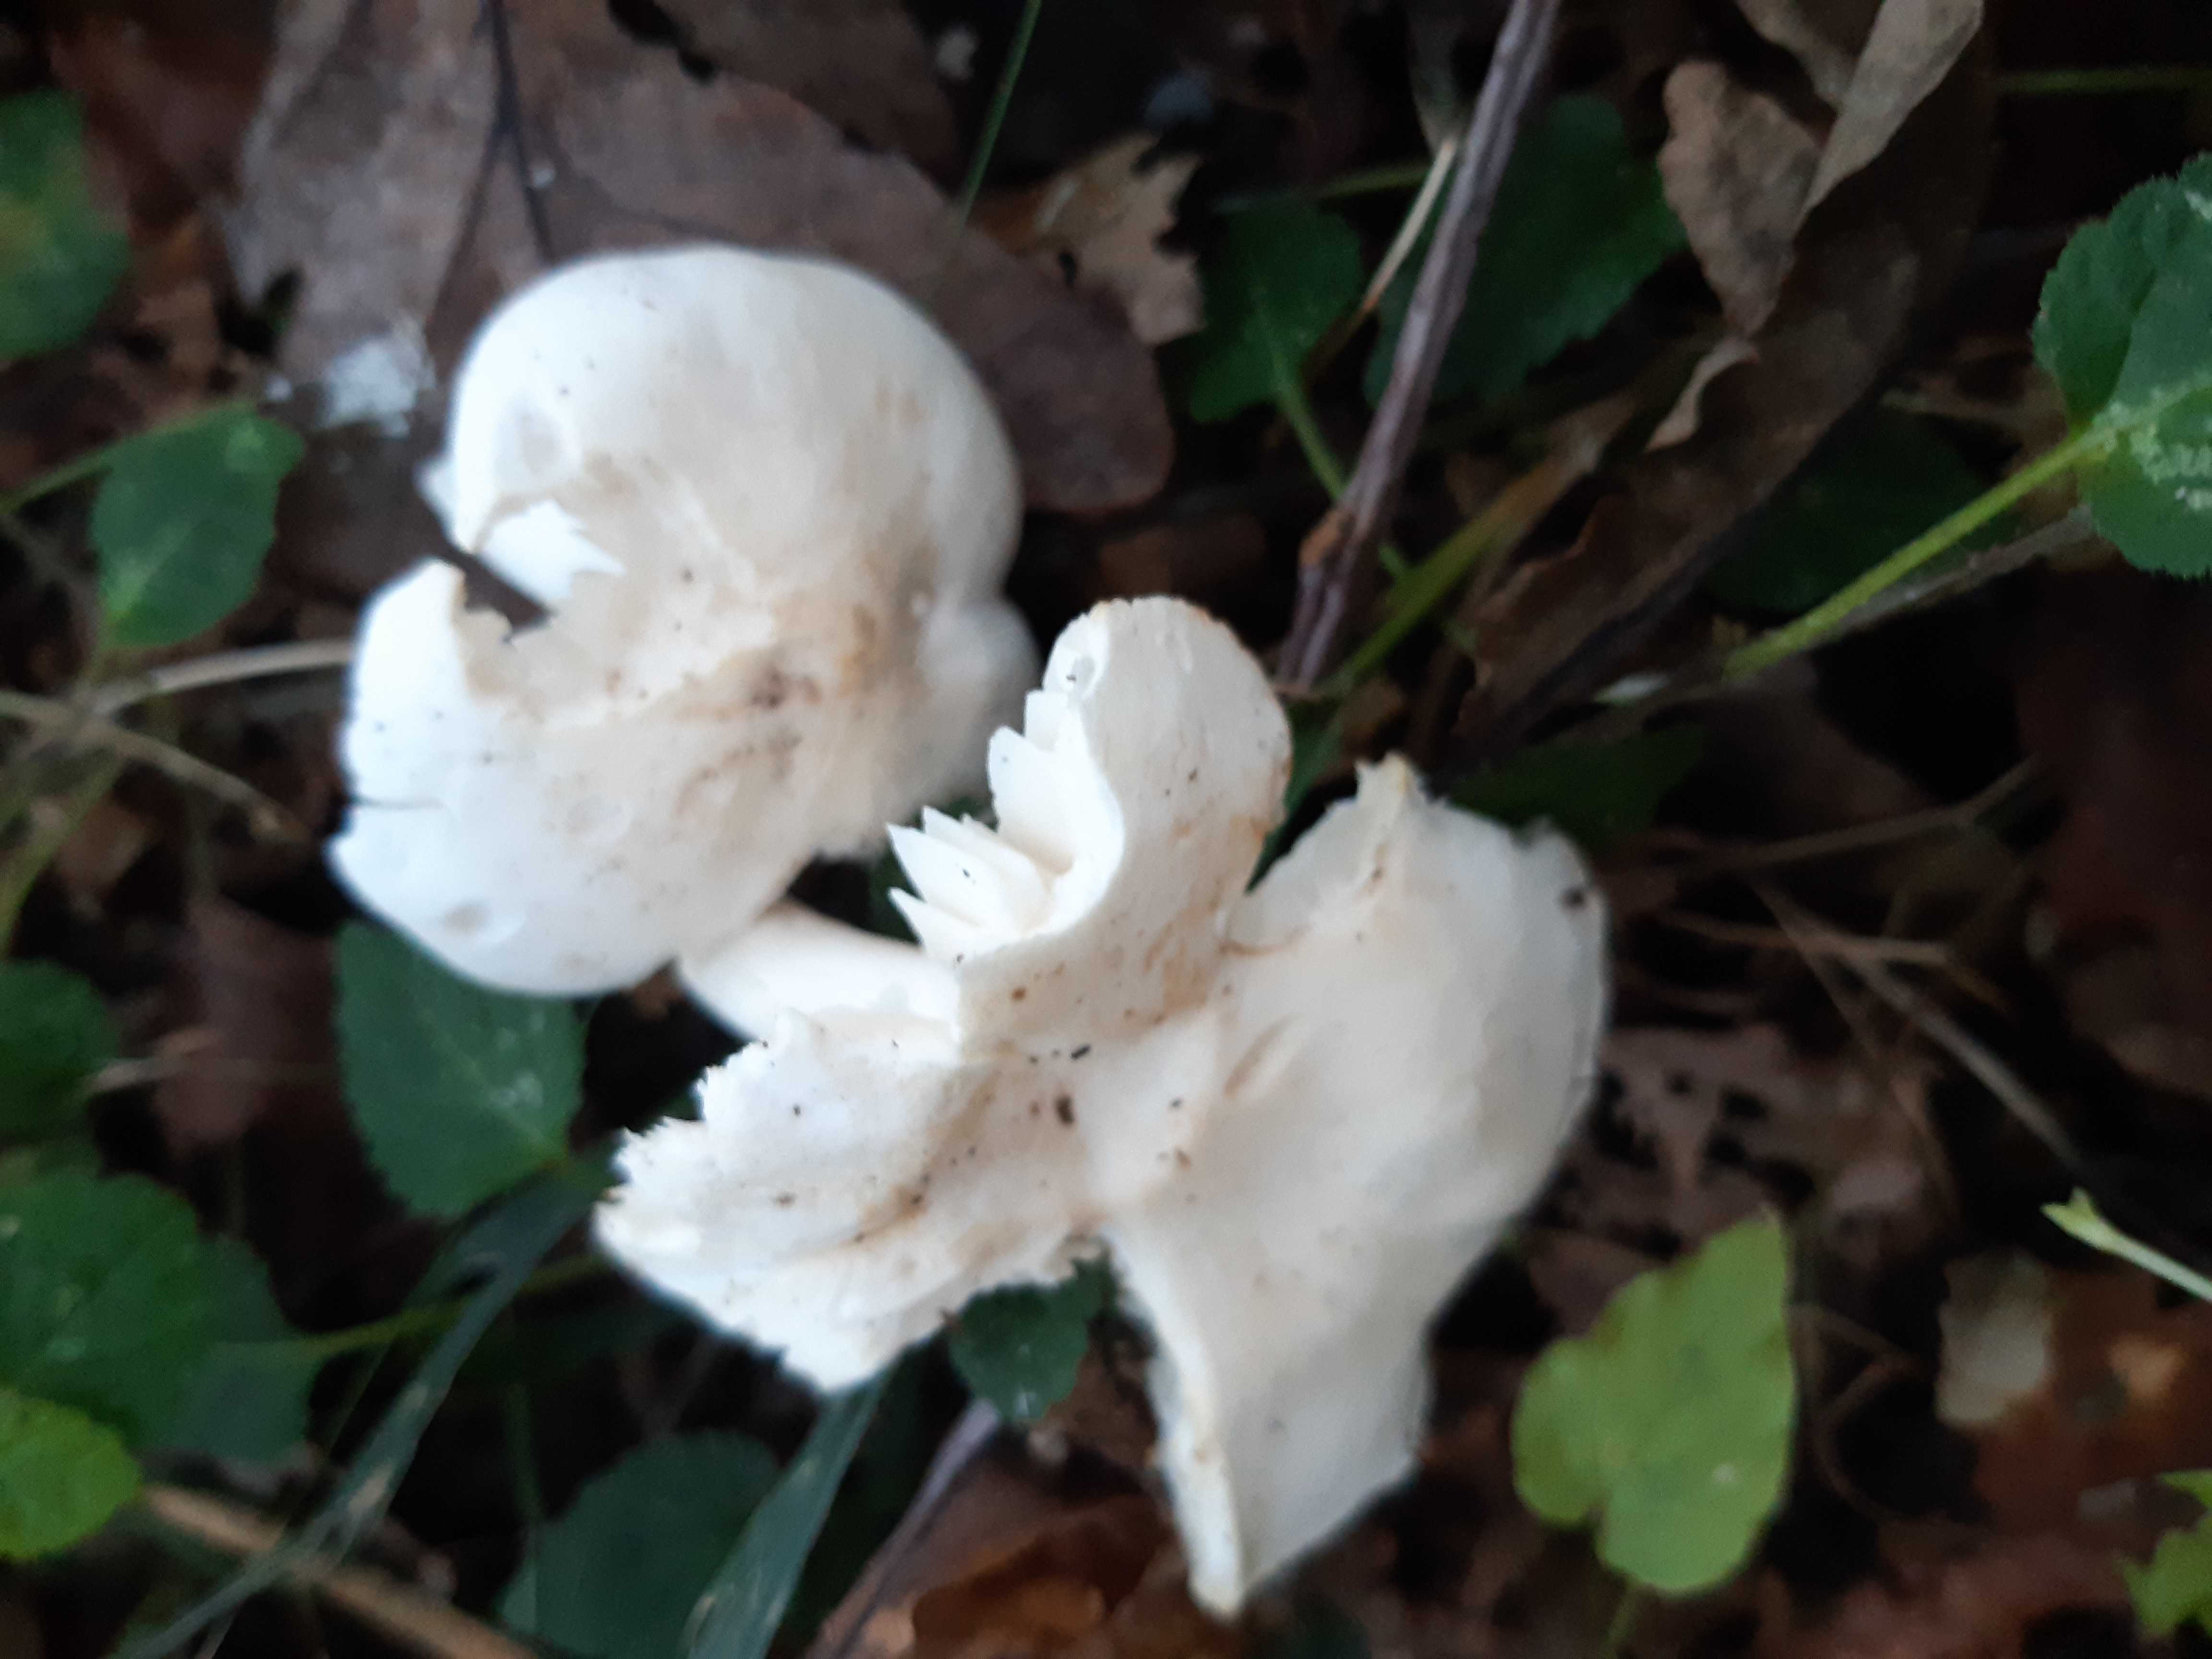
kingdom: Fungi
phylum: Basidiomycota
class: Agaricomycetes
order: Agaricales
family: Tricholomataceae
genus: Tricholoma
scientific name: Tricholoma album
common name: honning-ridderhat
